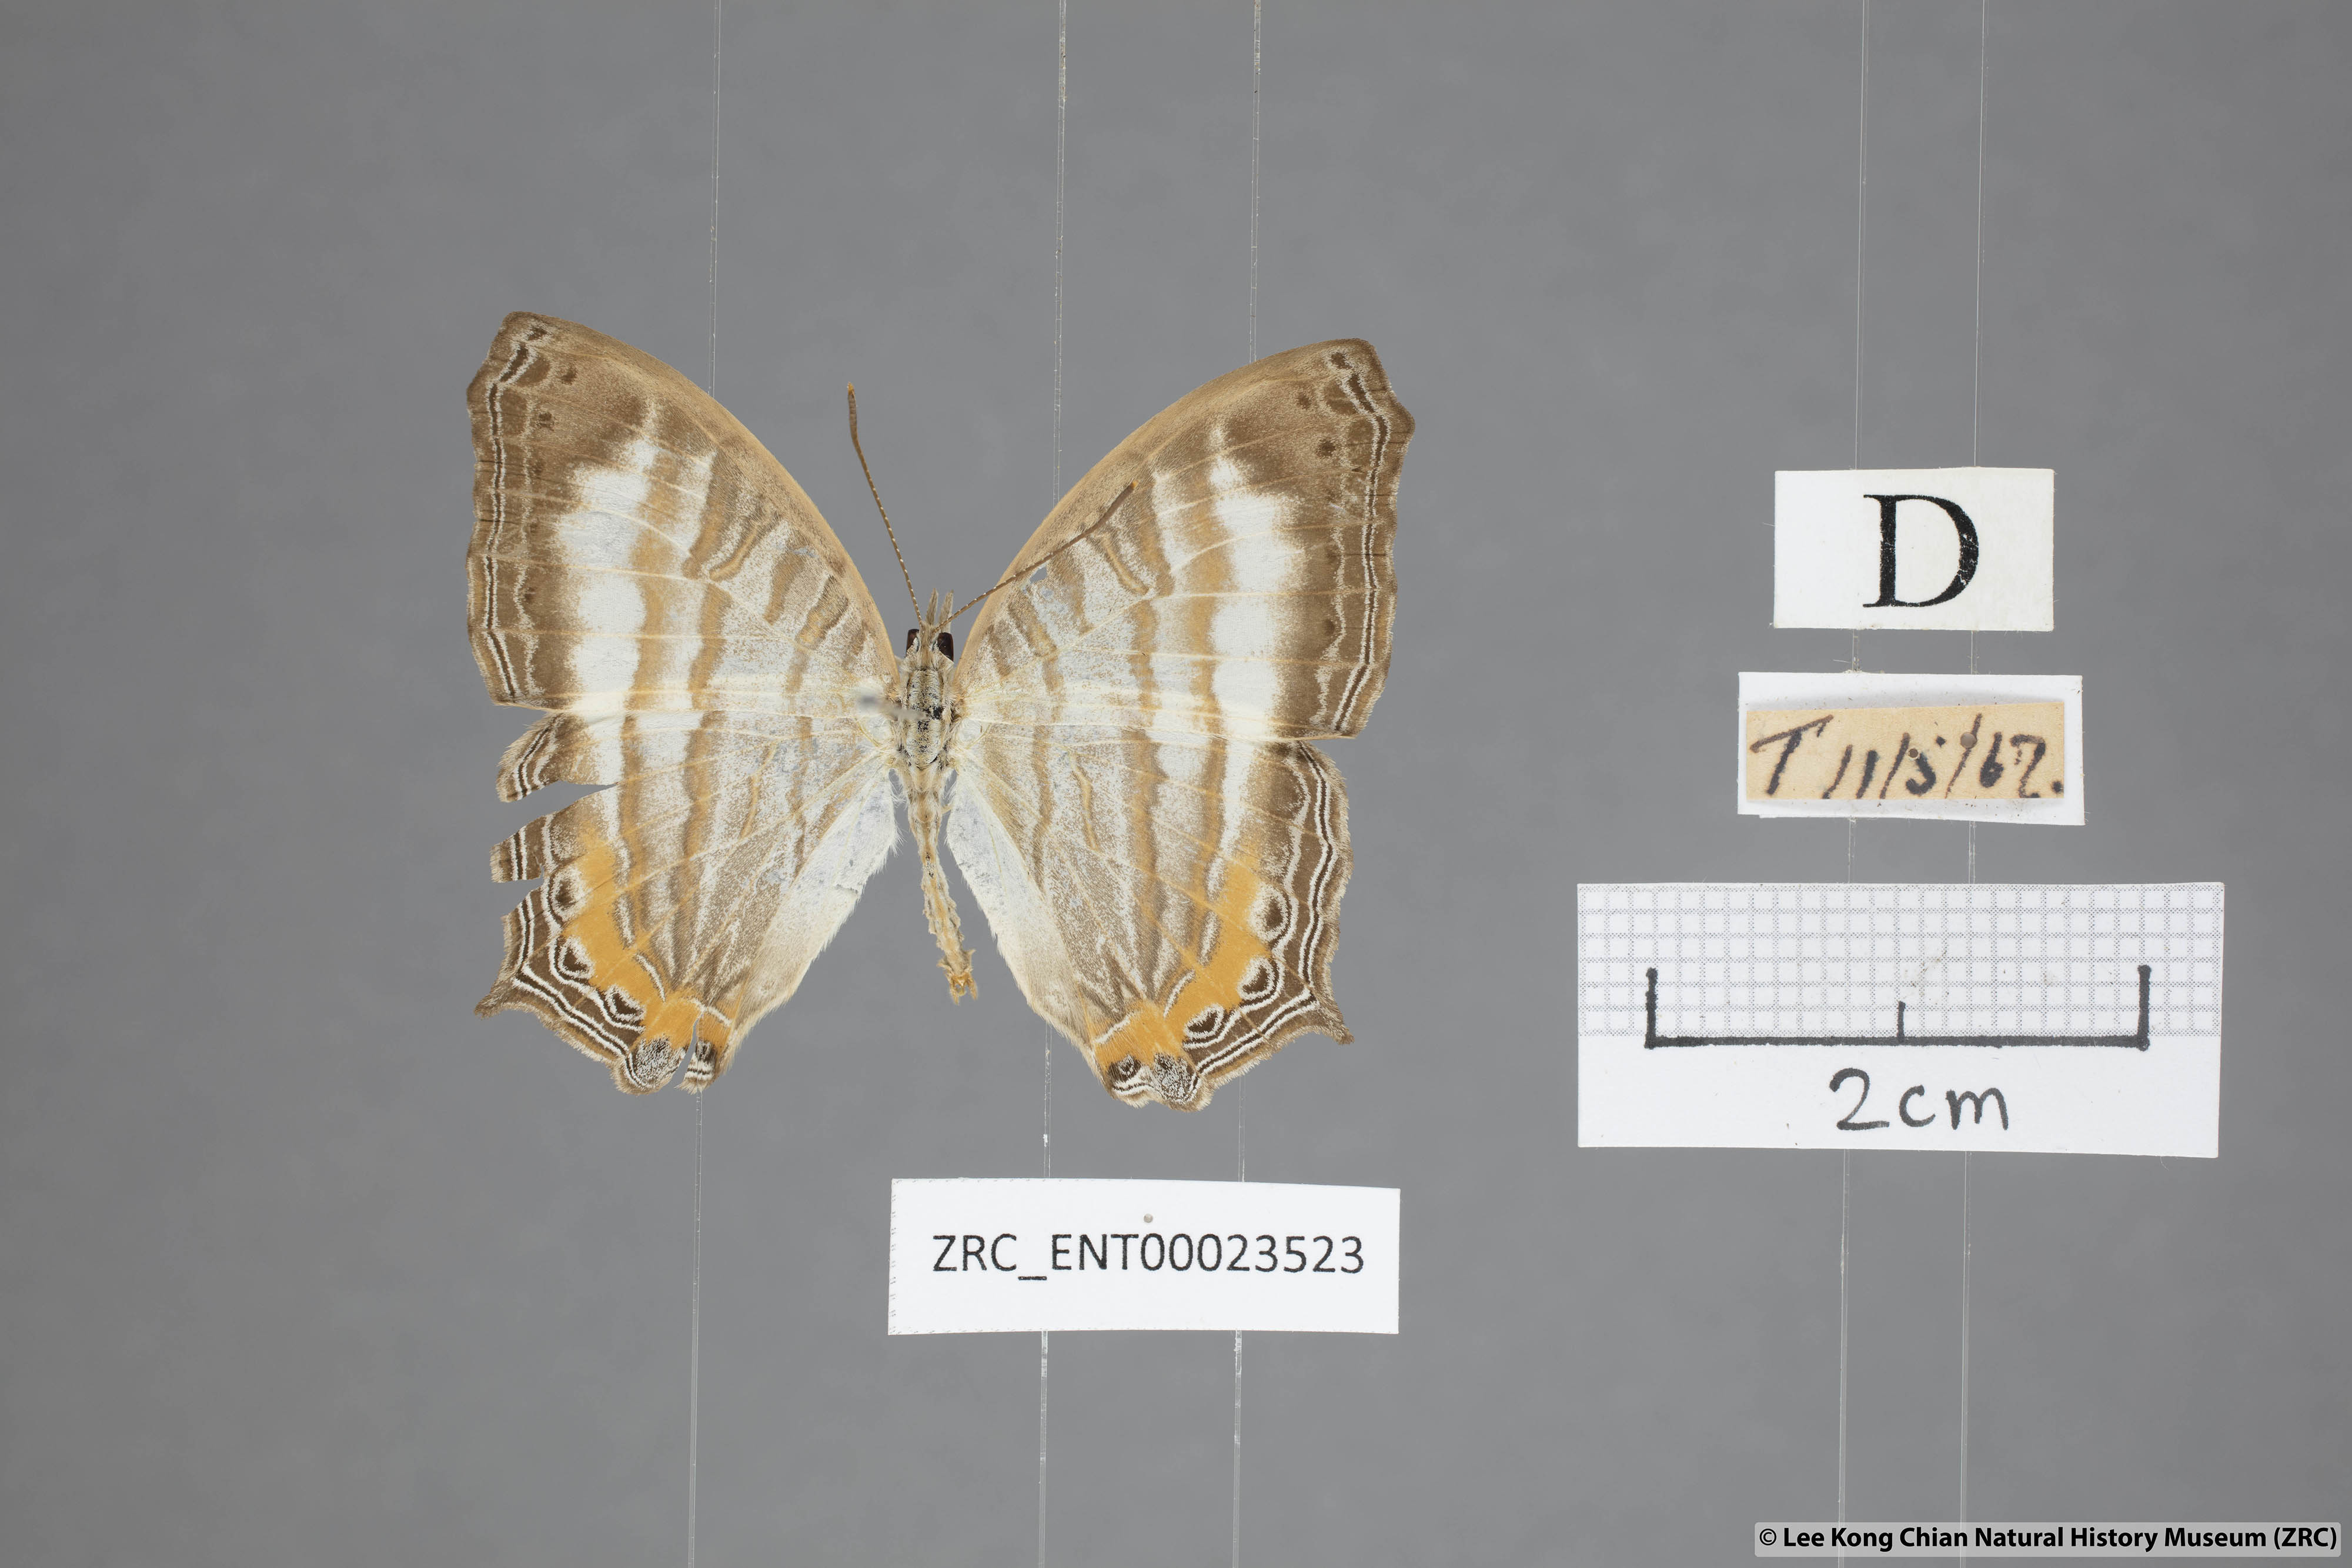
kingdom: Animalia
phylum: Arthropoda
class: Insecta
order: Lepidoptera
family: Nymphalidae
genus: Cyrestis
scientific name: Cyrestis themire
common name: Little mapwing
